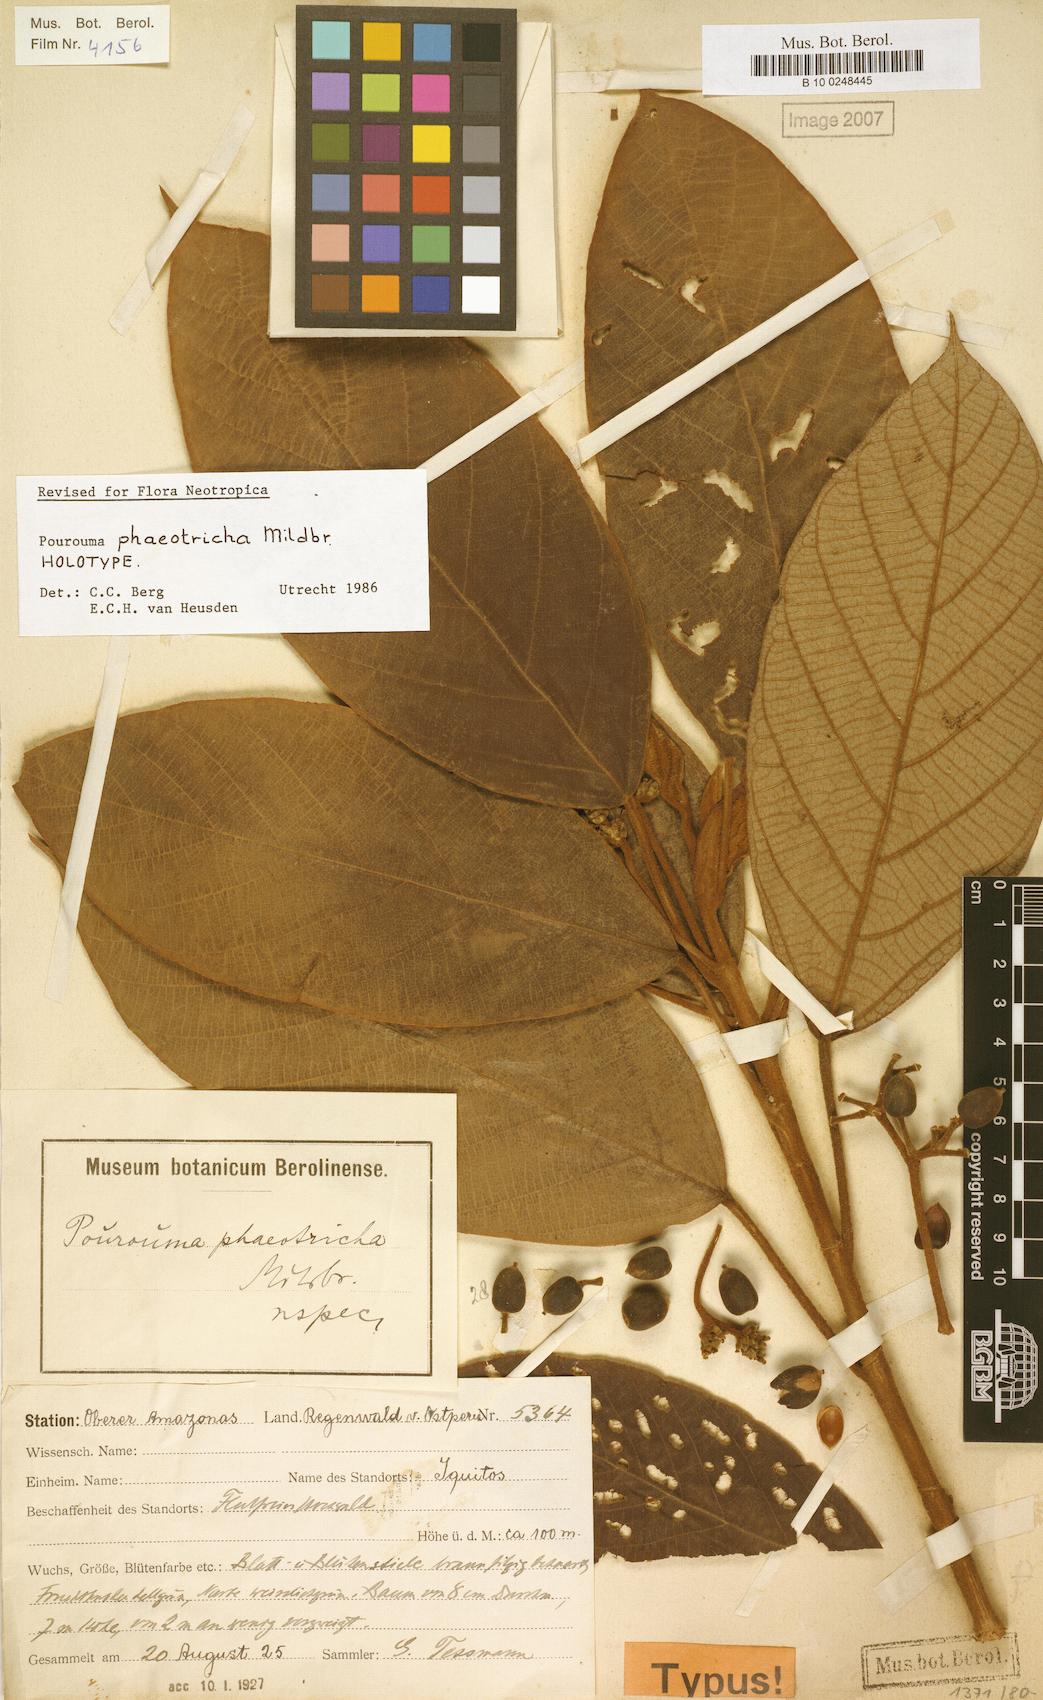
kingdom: Plantae
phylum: Tracheophyta
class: Magnoliopsida
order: Rosales
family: Urticaceae
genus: Pourouma
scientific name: Pourouma phaeotricha
